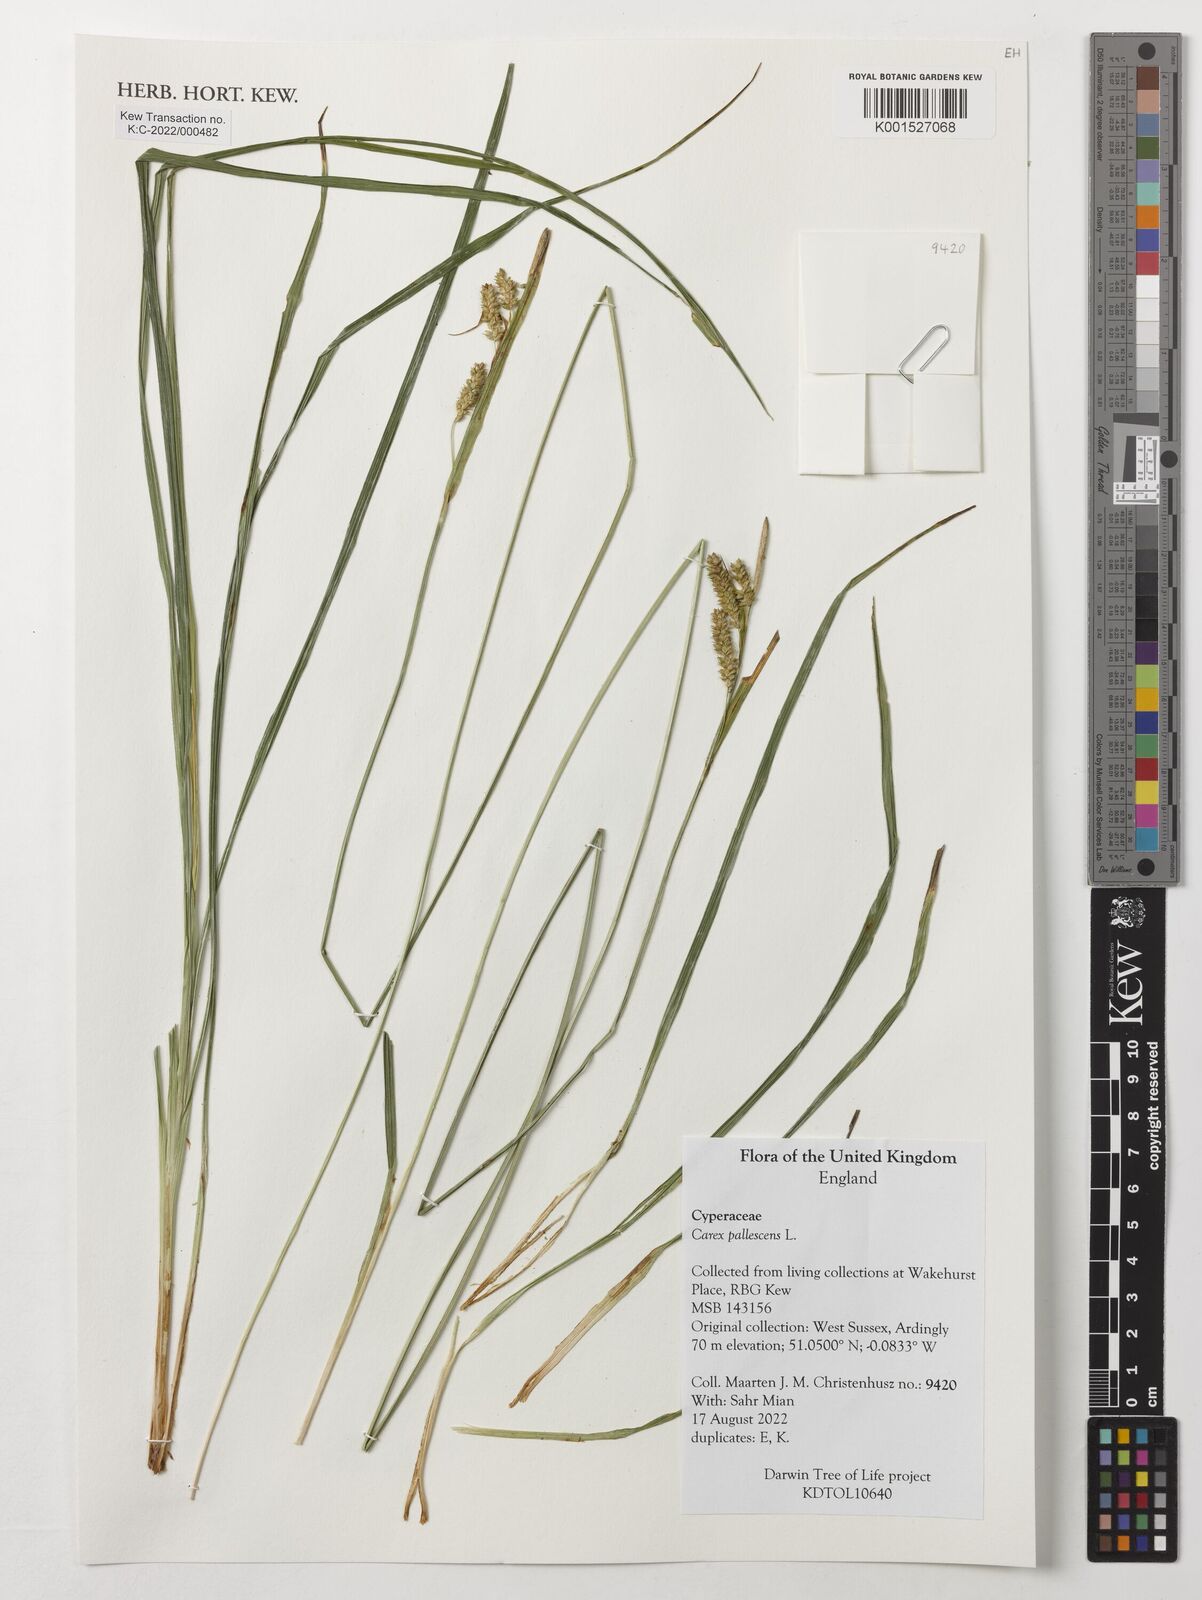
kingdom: Plantae
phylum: Tracheophyta
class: Liliopsida
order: Poales
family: Cyperaceae
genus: Carex
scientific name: Carex pallescens
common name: Pale sedge
